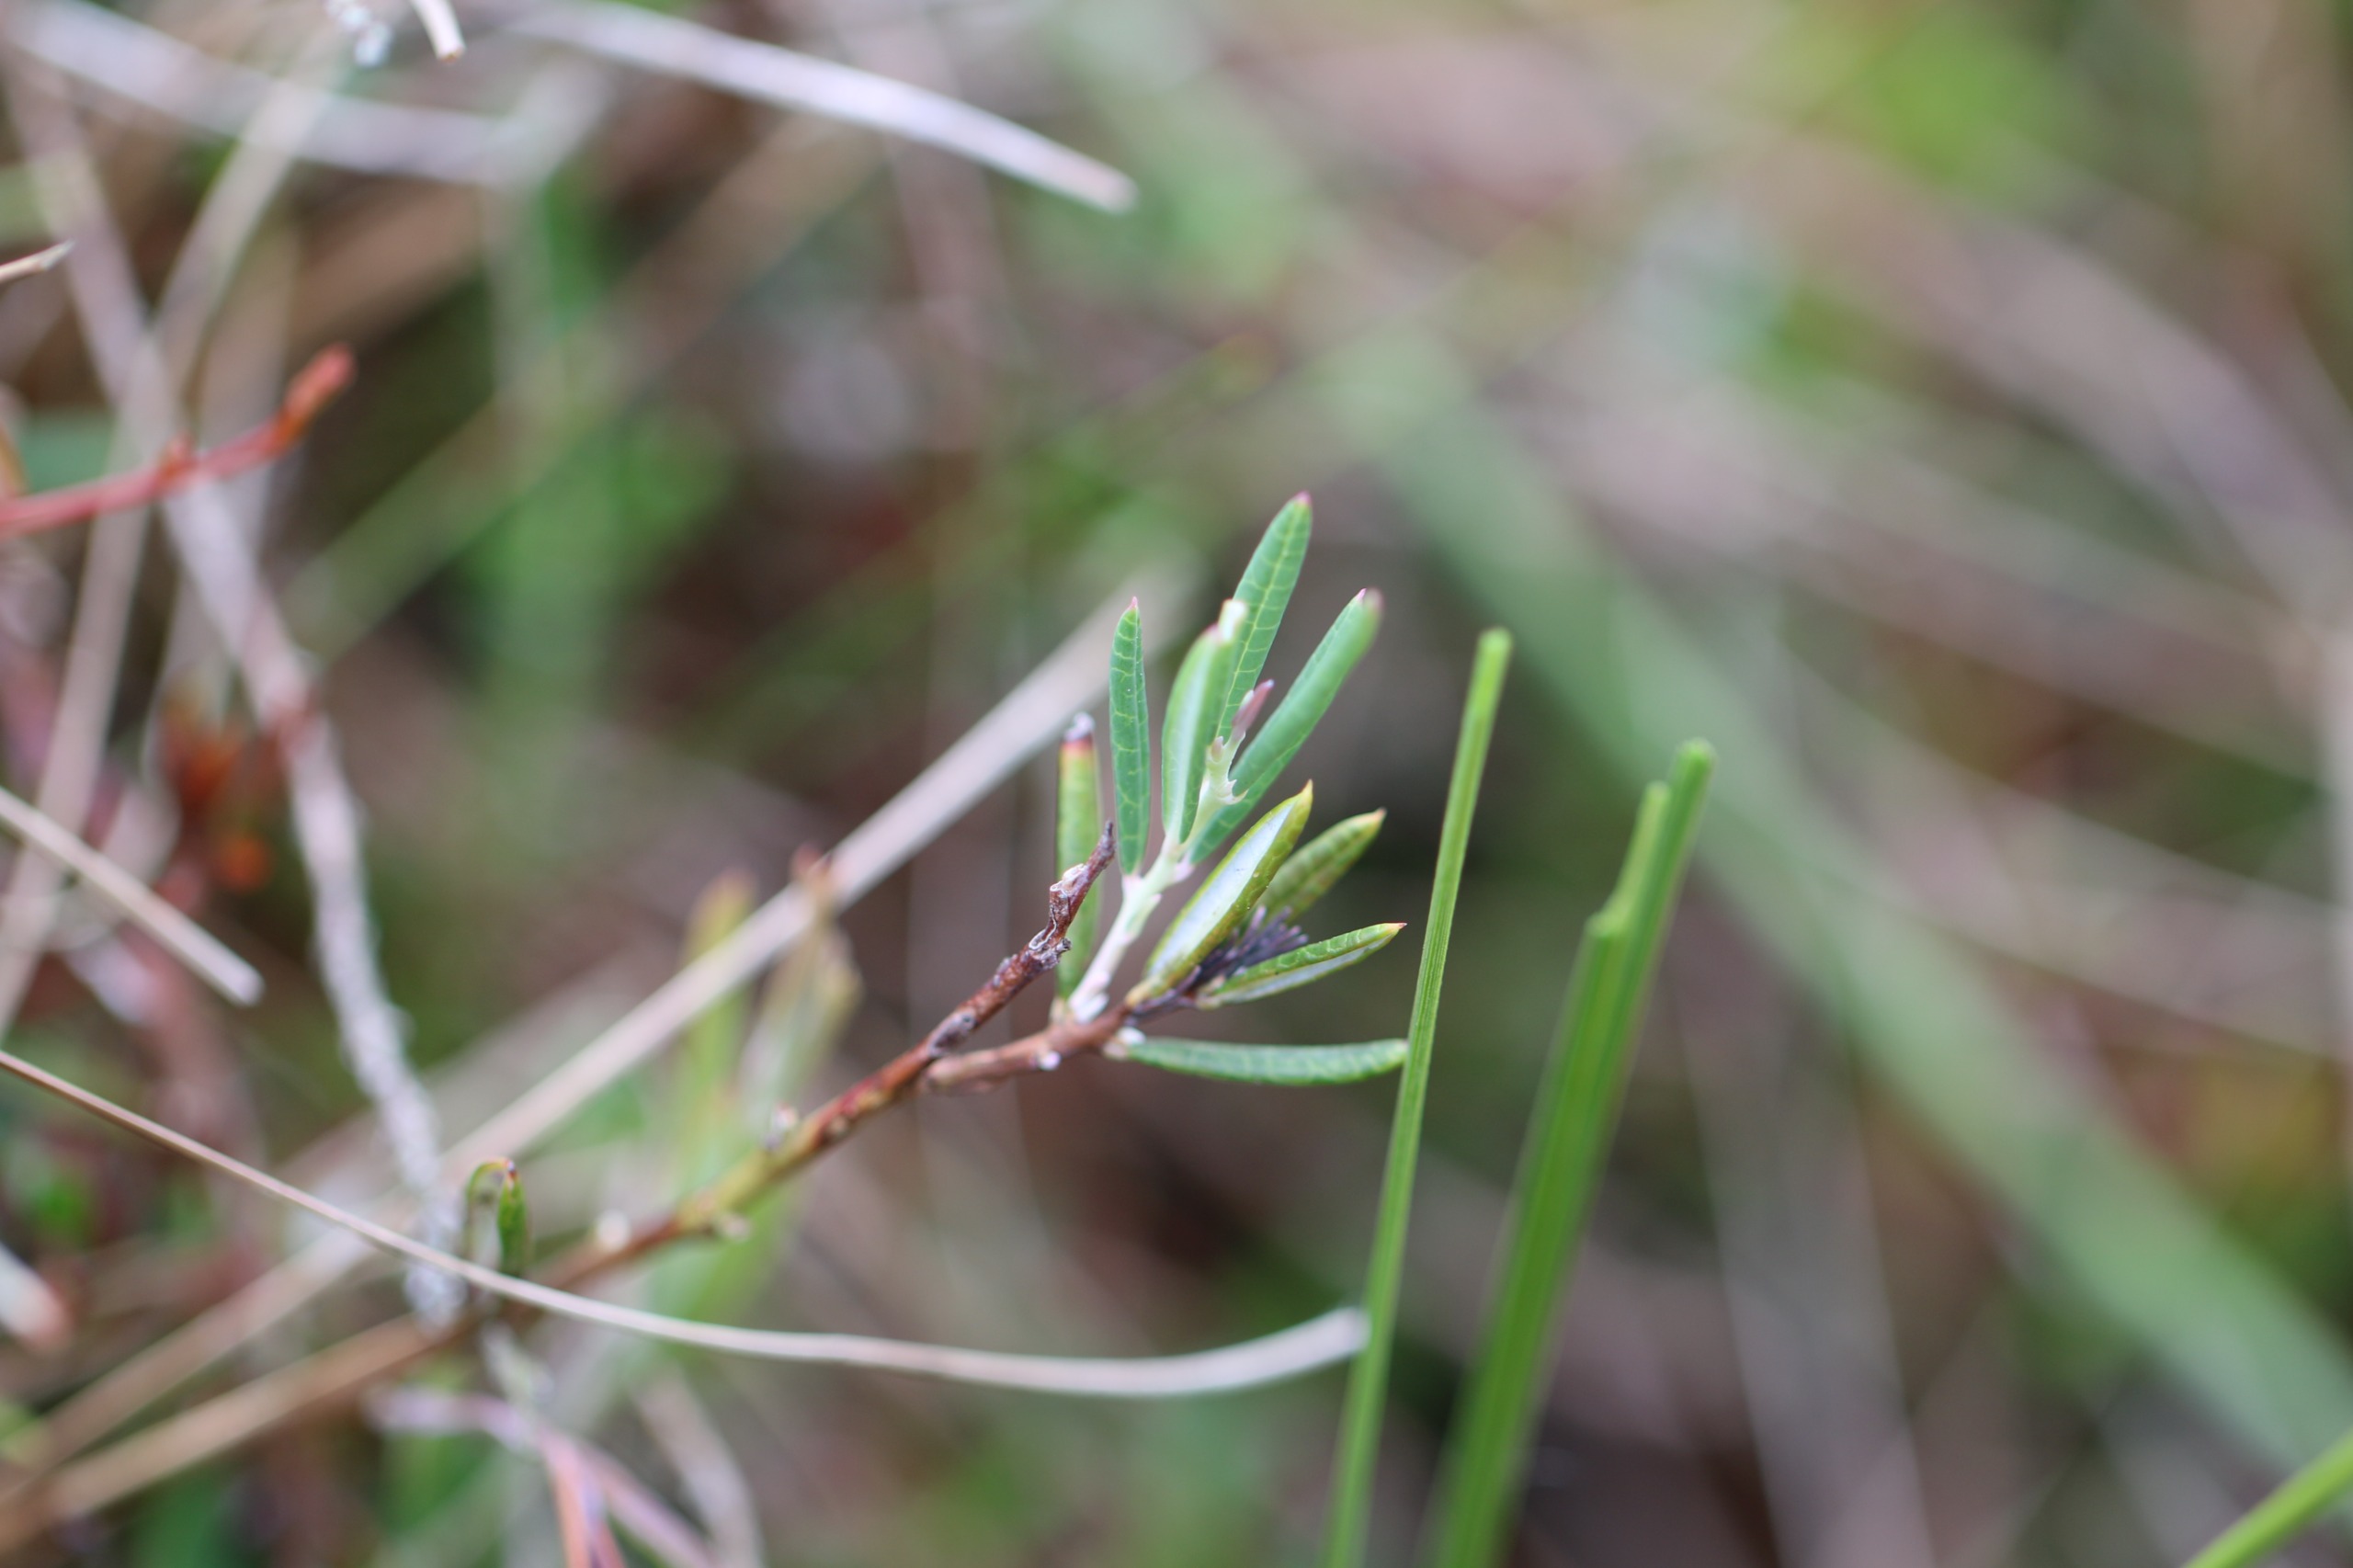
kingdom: Plantae
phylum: Tracheophyta
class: Magnoliopsida
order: Ericales
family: Ericaceae
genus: Andromeda
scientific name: Andromeda polifolia
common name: Rosmarinlyng
